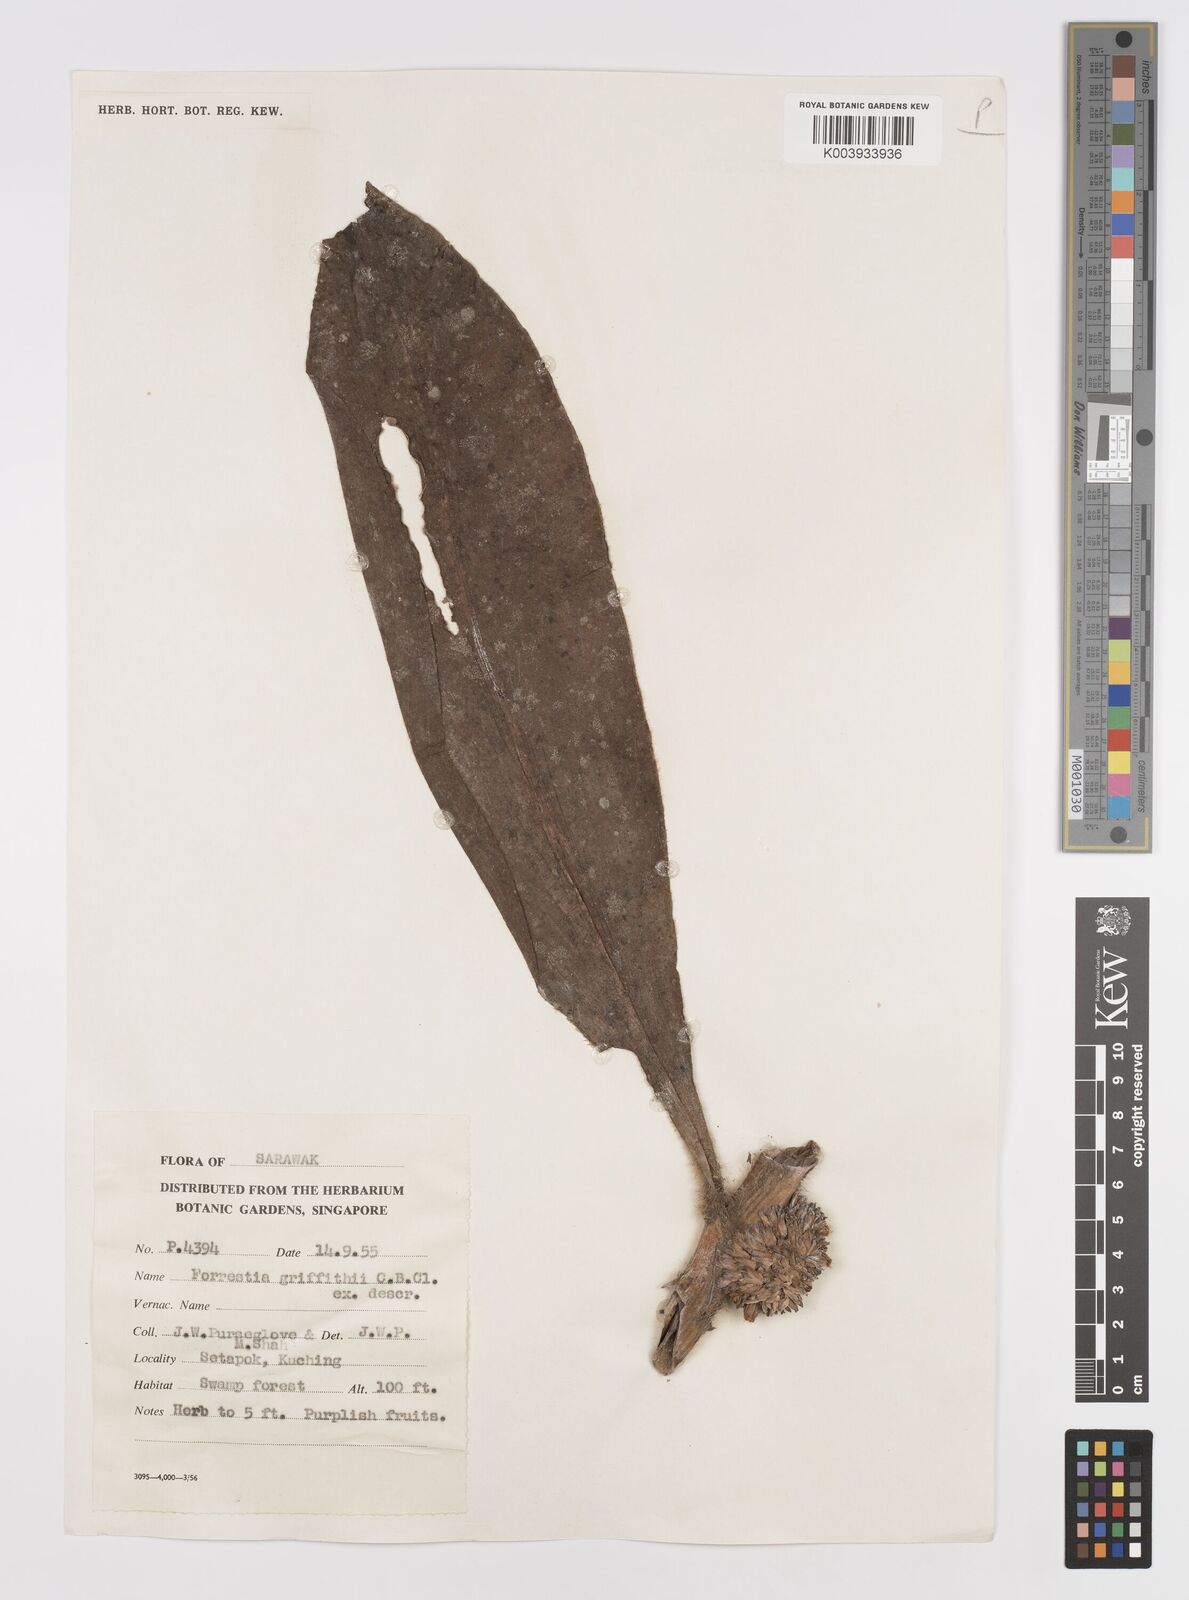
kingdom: Plantae
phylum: Tracheophyta
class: Liliopsida
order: Commelinales
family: Commelinaceae
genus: Amischotolype
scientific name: Amischotolype griffithii
